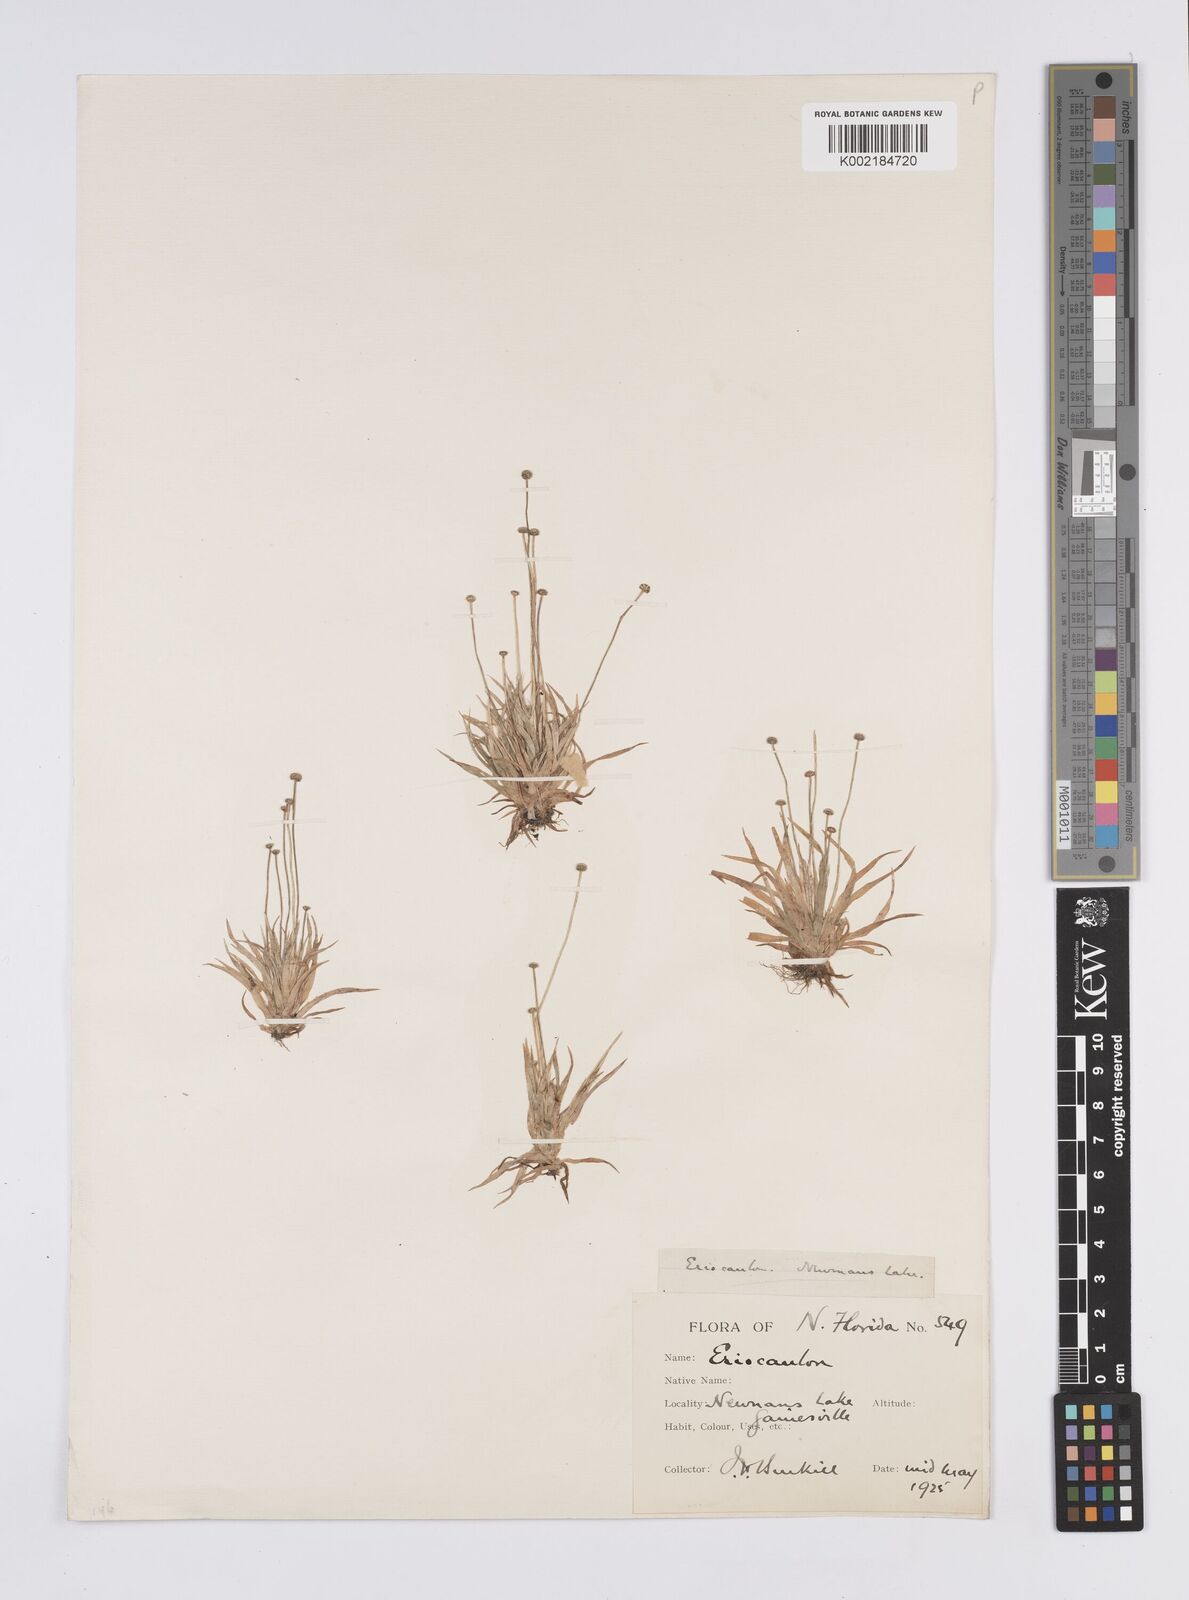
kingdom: Plantae
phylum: Tracheophyta
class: Liliopsida
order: Poales
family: Eriocaulaceae
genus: Eriocaulon
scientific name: Eriocaulon ravenelii
